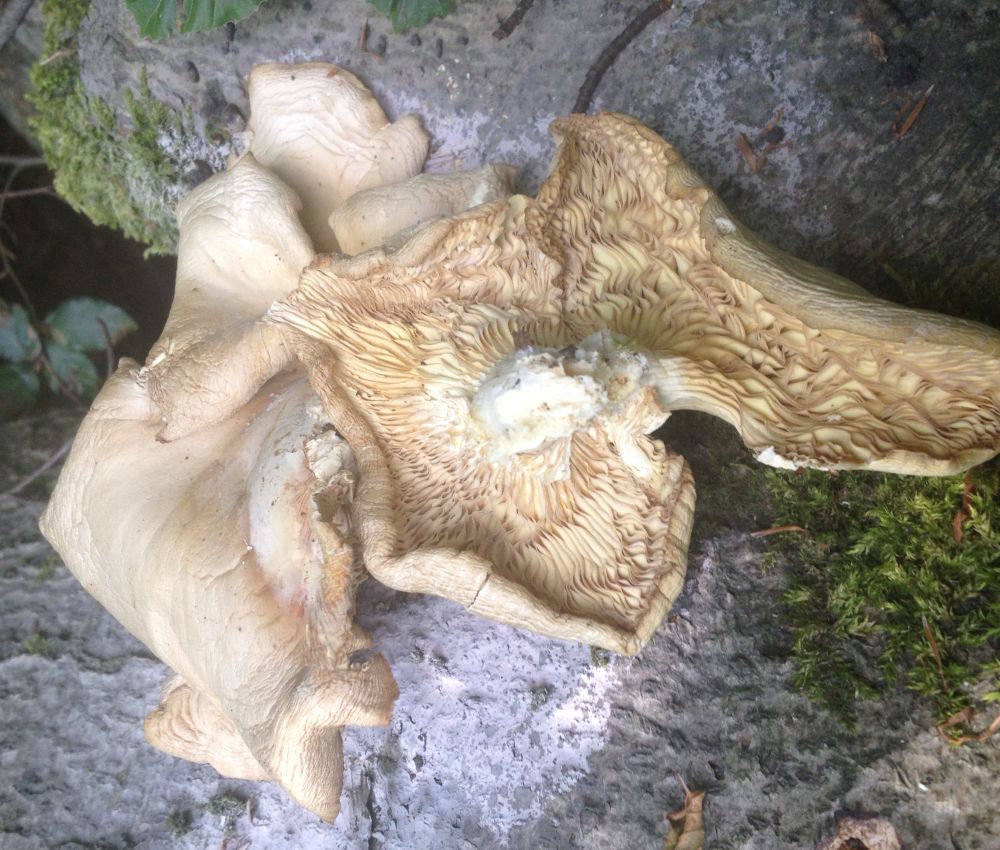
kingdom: Fungi
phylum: Basidiomycota
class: Agaricomycetes
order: Agaricales
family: Pleurotaceae
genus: Pleurotus
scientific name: Pleurotus pulmonarius
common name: sommer-østershat
